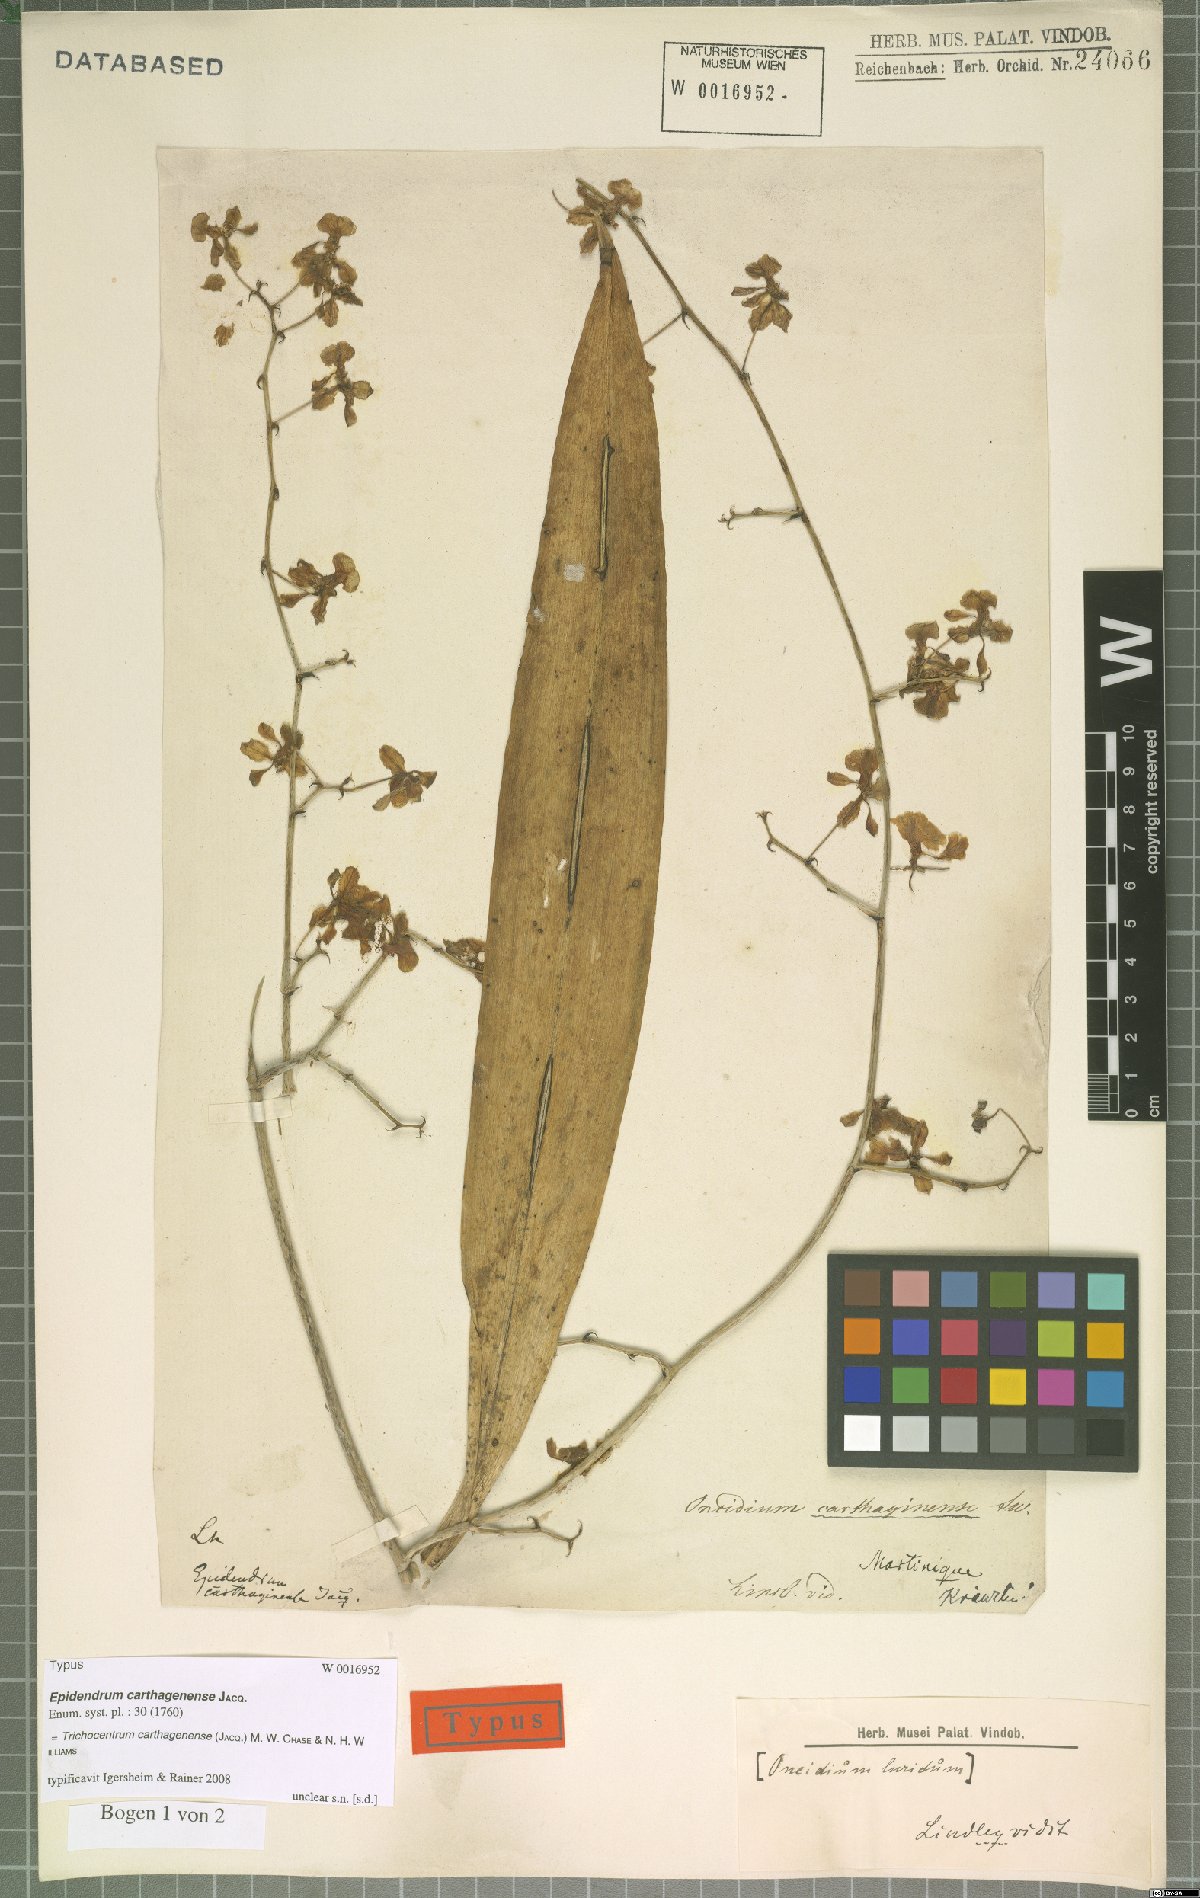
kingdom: Plantae
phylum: Tracheophyta
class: Liliopsida
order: Asparagales
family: Orchidaceae
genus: Trichocentrum
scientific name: Trichocentrum luridum
